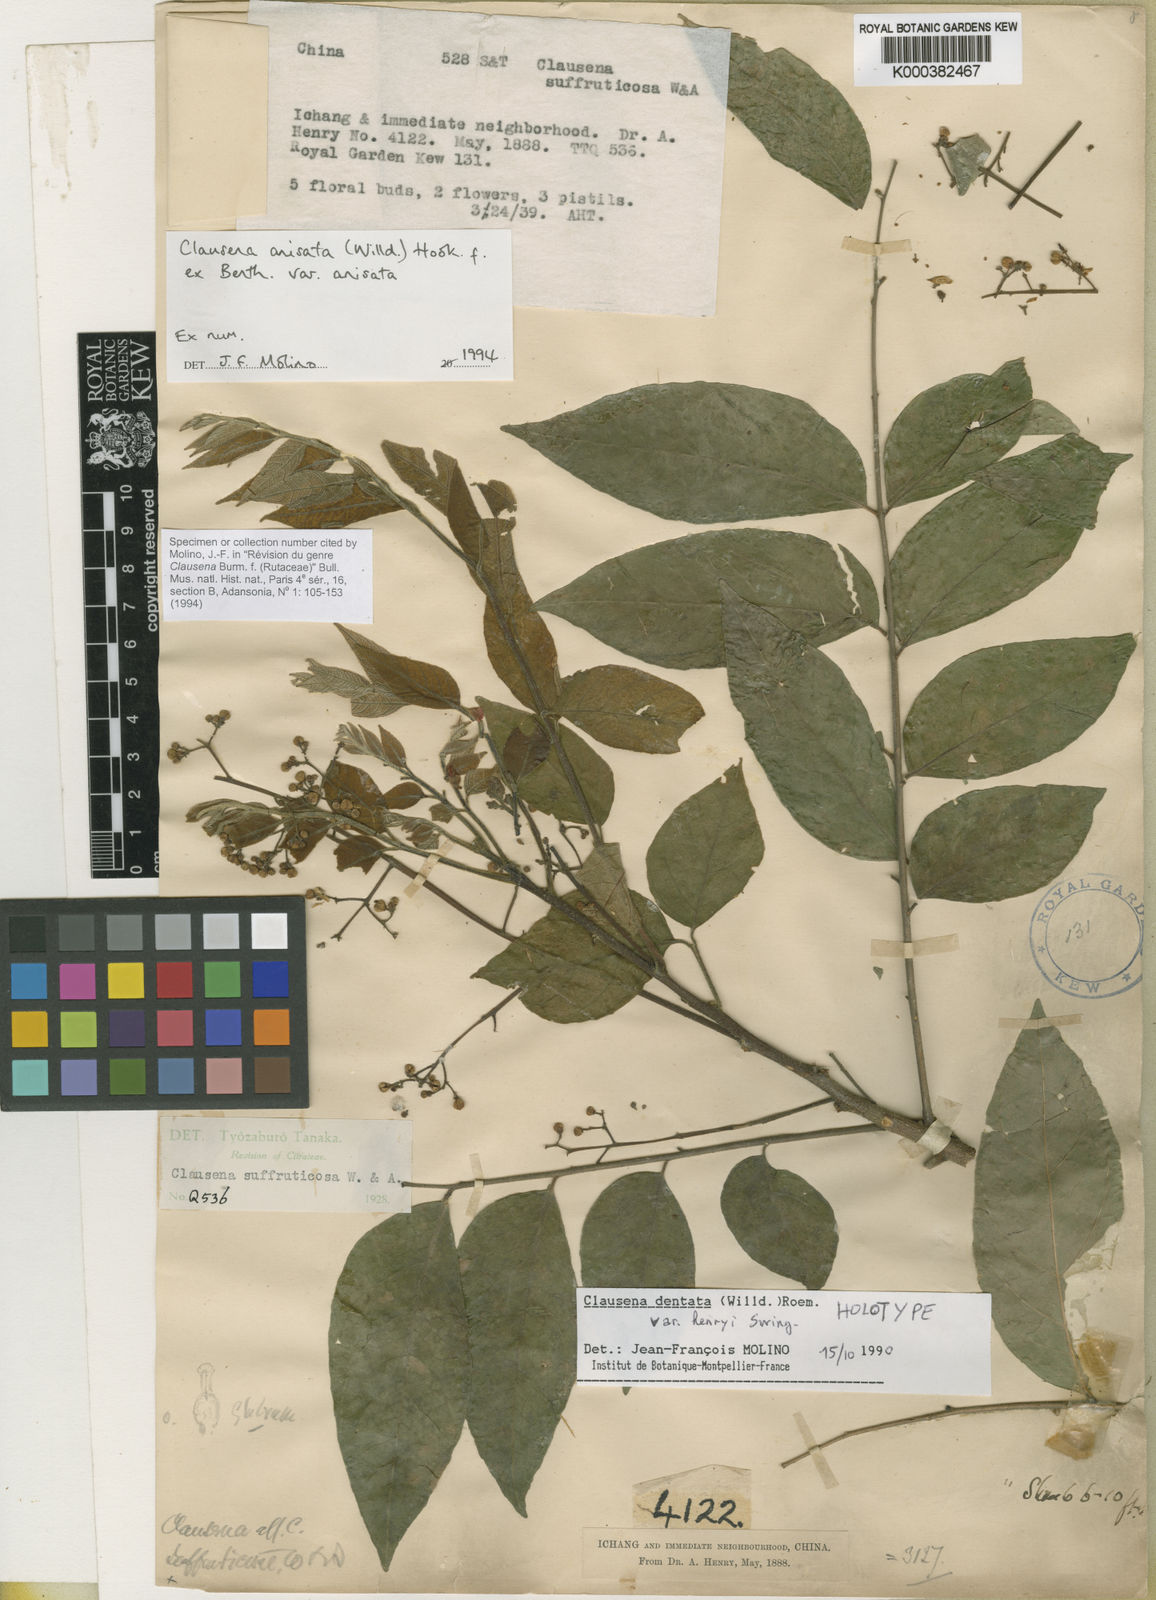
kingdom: Plantae
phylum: Tracheophyta
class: Magnoliopsida
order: Sapindales
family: Rutaceae
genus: Clausena
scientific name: Clausena anisata
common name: Horsewood
